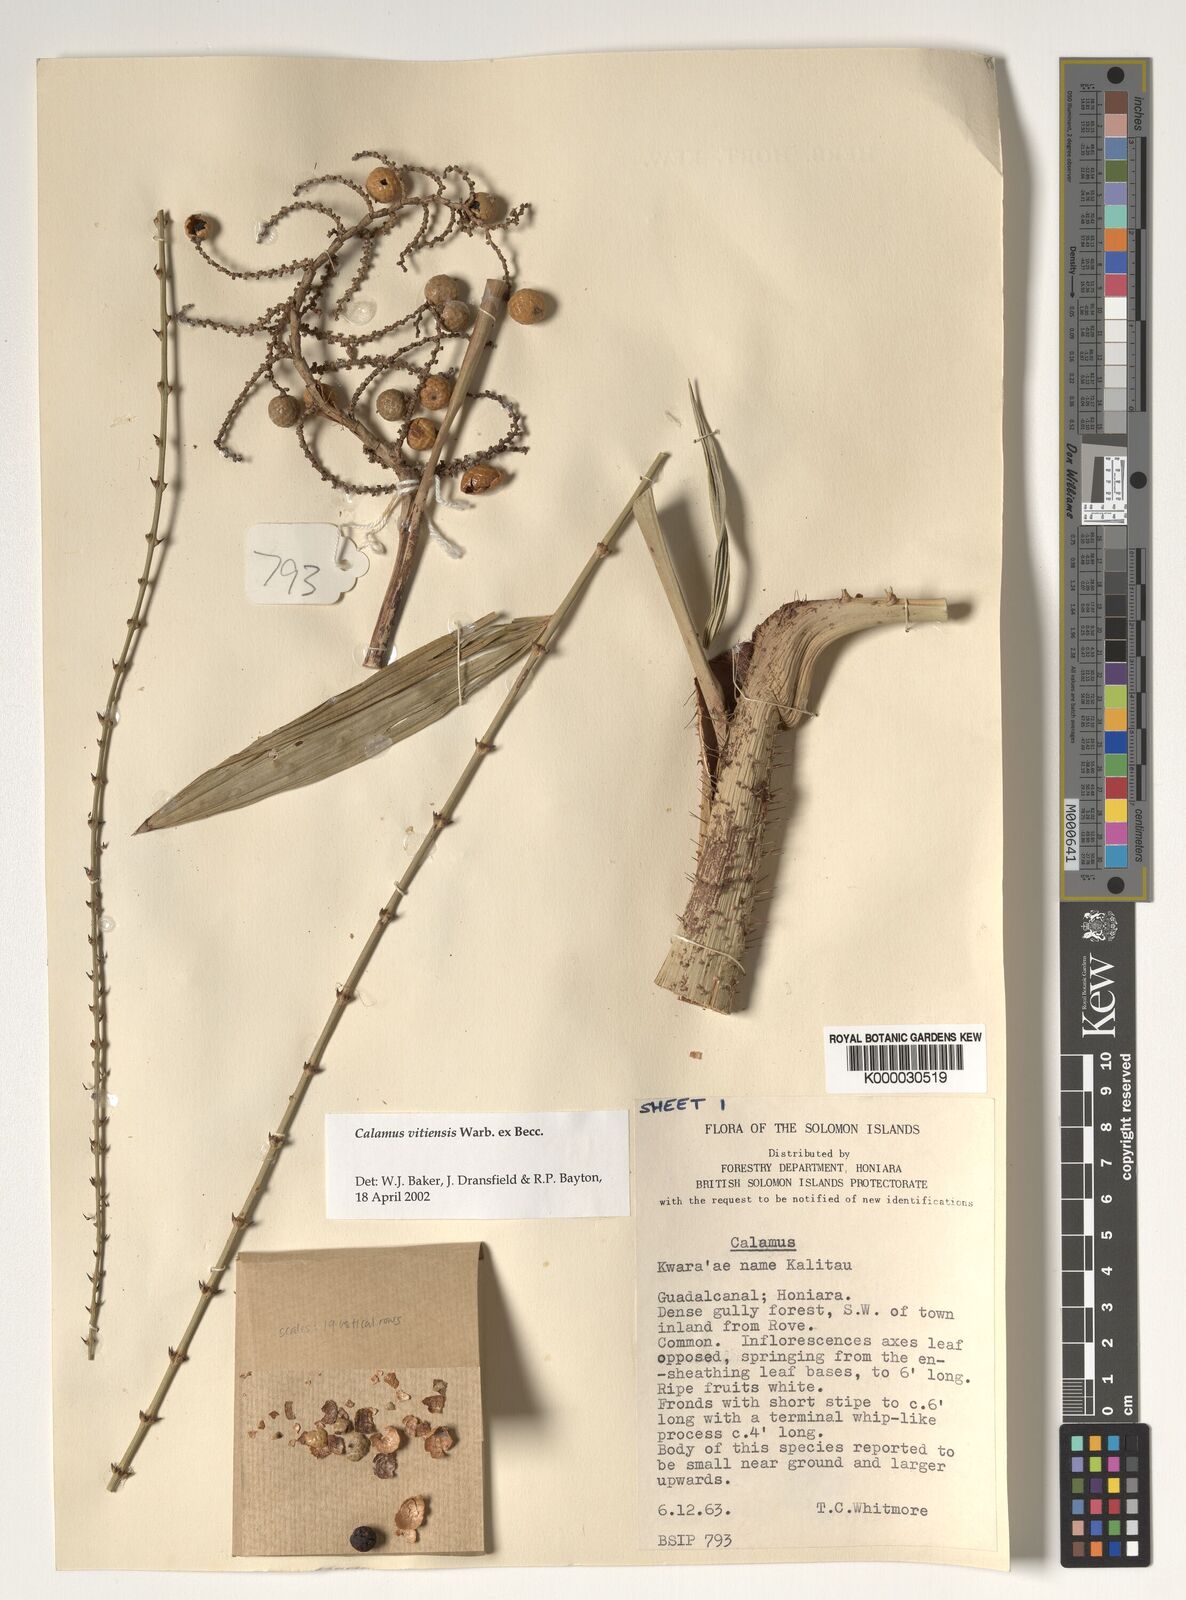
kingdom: Plantae
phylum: Tracheophyta
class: Liliopsida
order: Arecales
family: Arecaceae
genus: Calamus
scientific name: Calamus vitiensis
